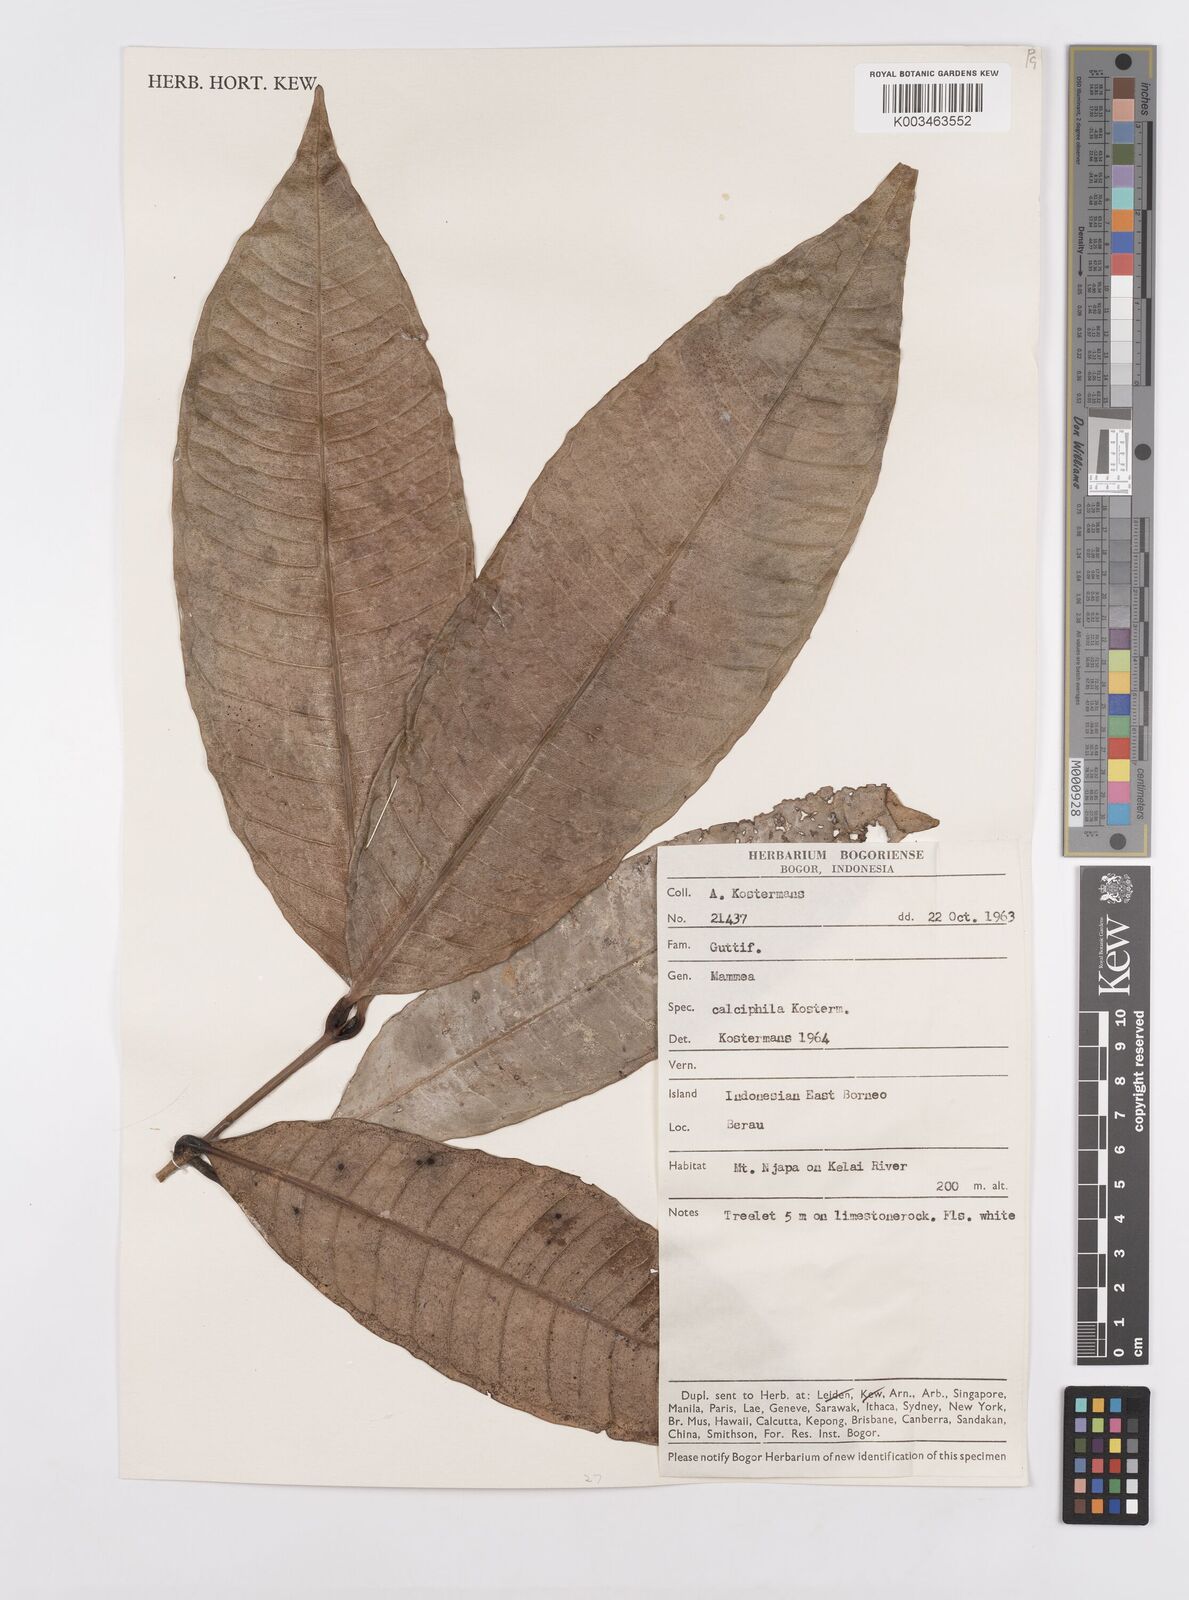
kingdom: Plantae
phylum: Tracheophyta
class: Magnoliopsida
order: Malpighiales
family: Calophyllaceae
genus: Mammea
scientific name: Mammea calciphila
